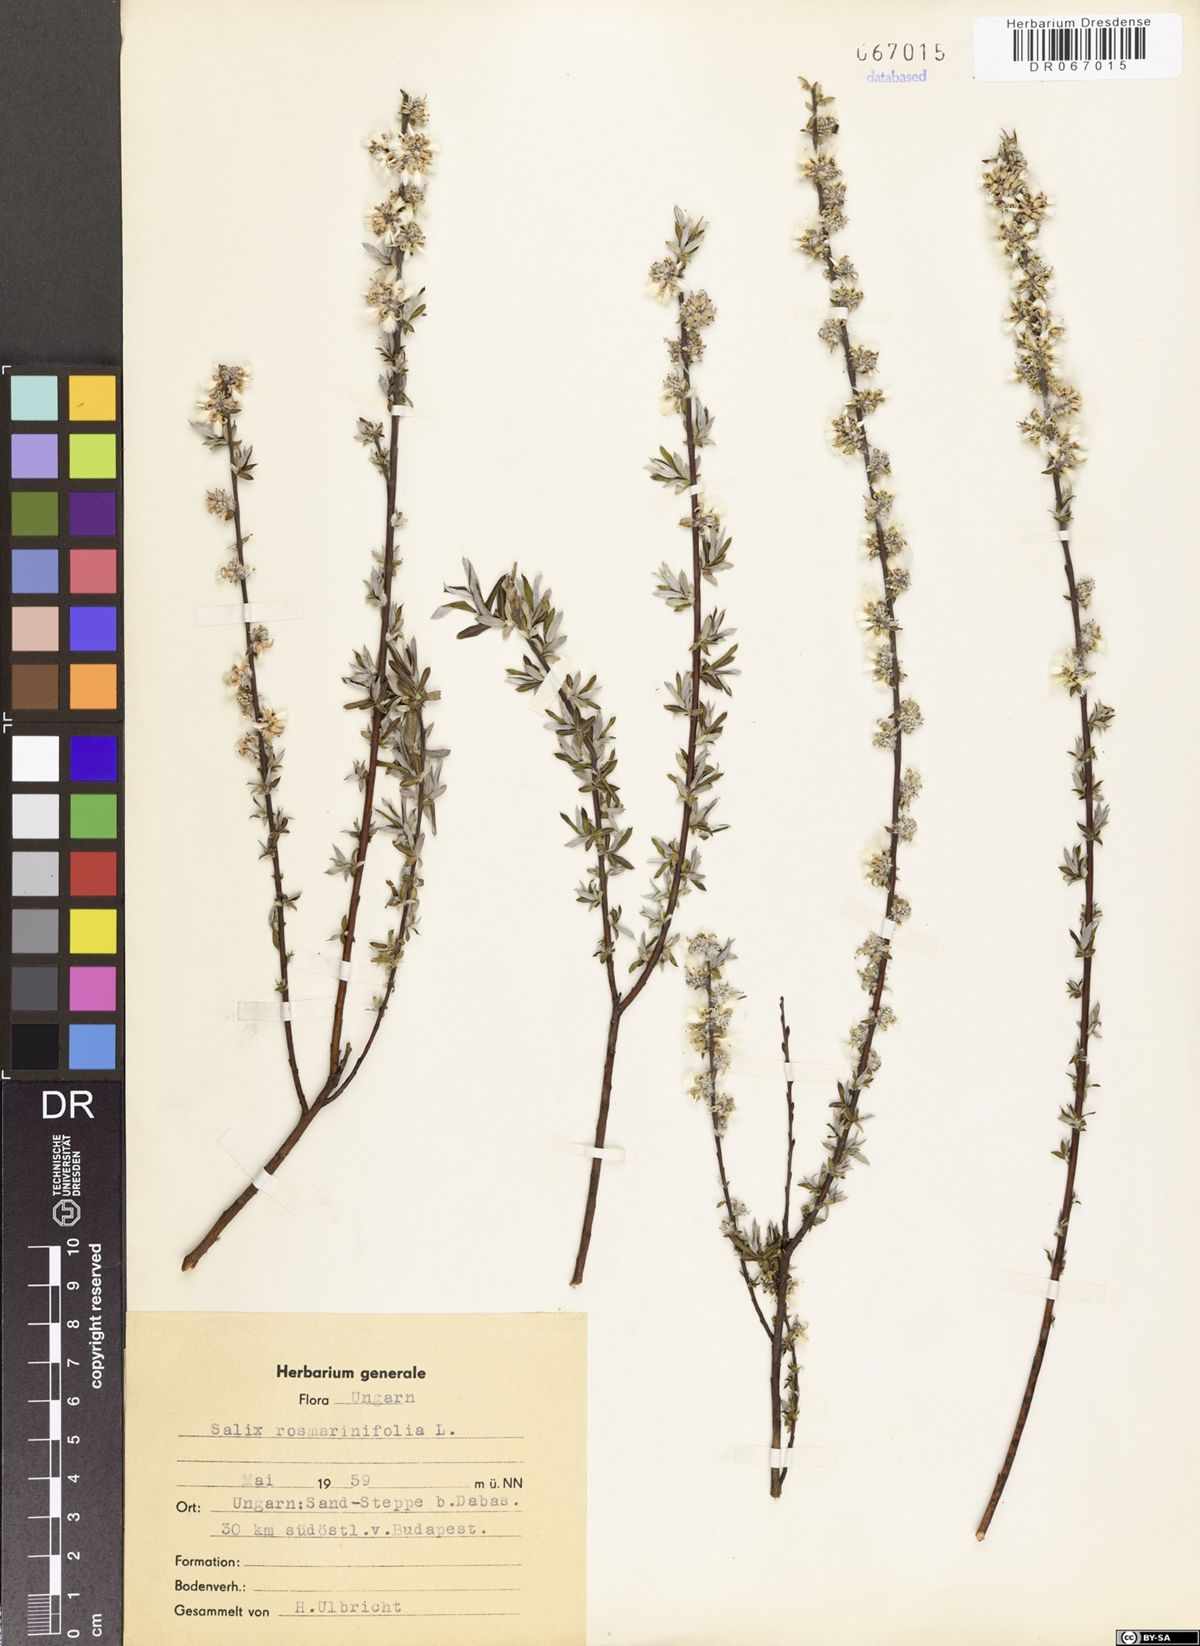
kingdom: Plantae
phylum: Tracheophyta
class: Magnoliopsida
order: Malpighiales
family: Salicaceae
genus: Salix
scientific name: Salix rosmarinifolia
